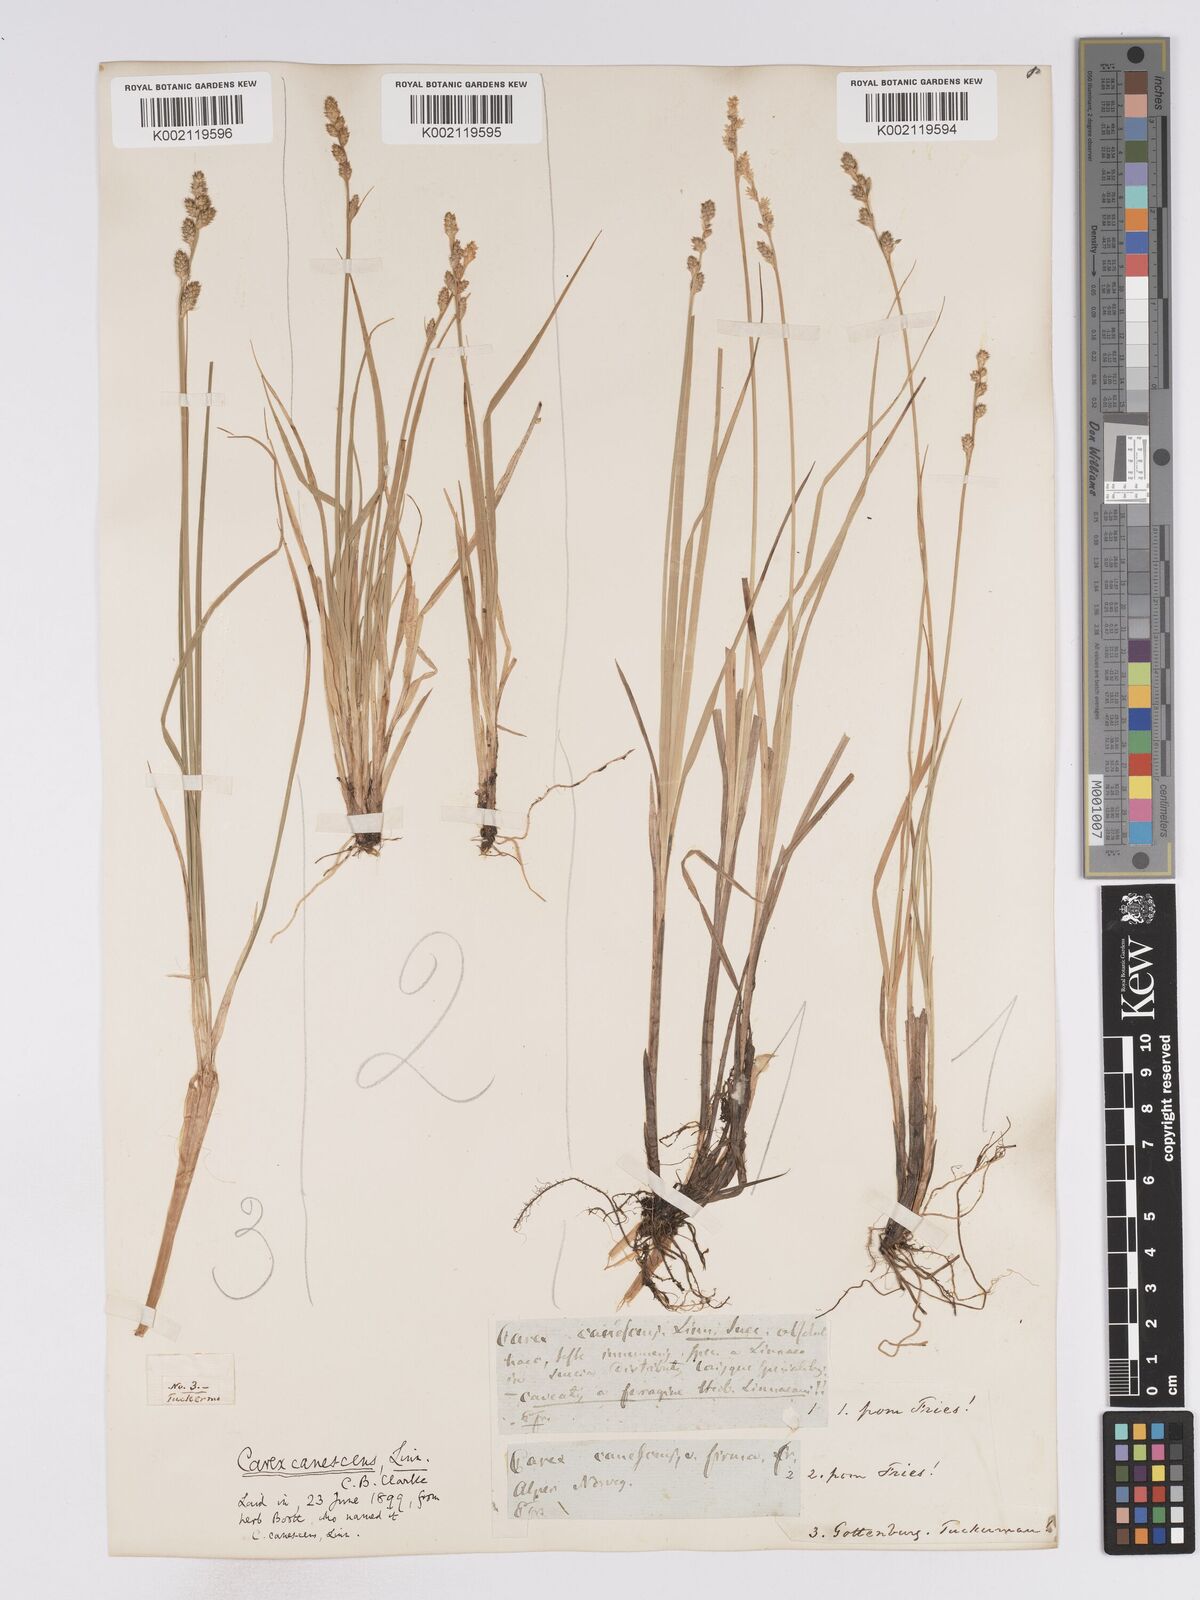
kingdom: Plantae
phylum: Tracheophyta
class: Liliopsida
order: Poales
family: Cyperaceae
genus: Carex
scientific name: Carex curta
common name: White sedge
